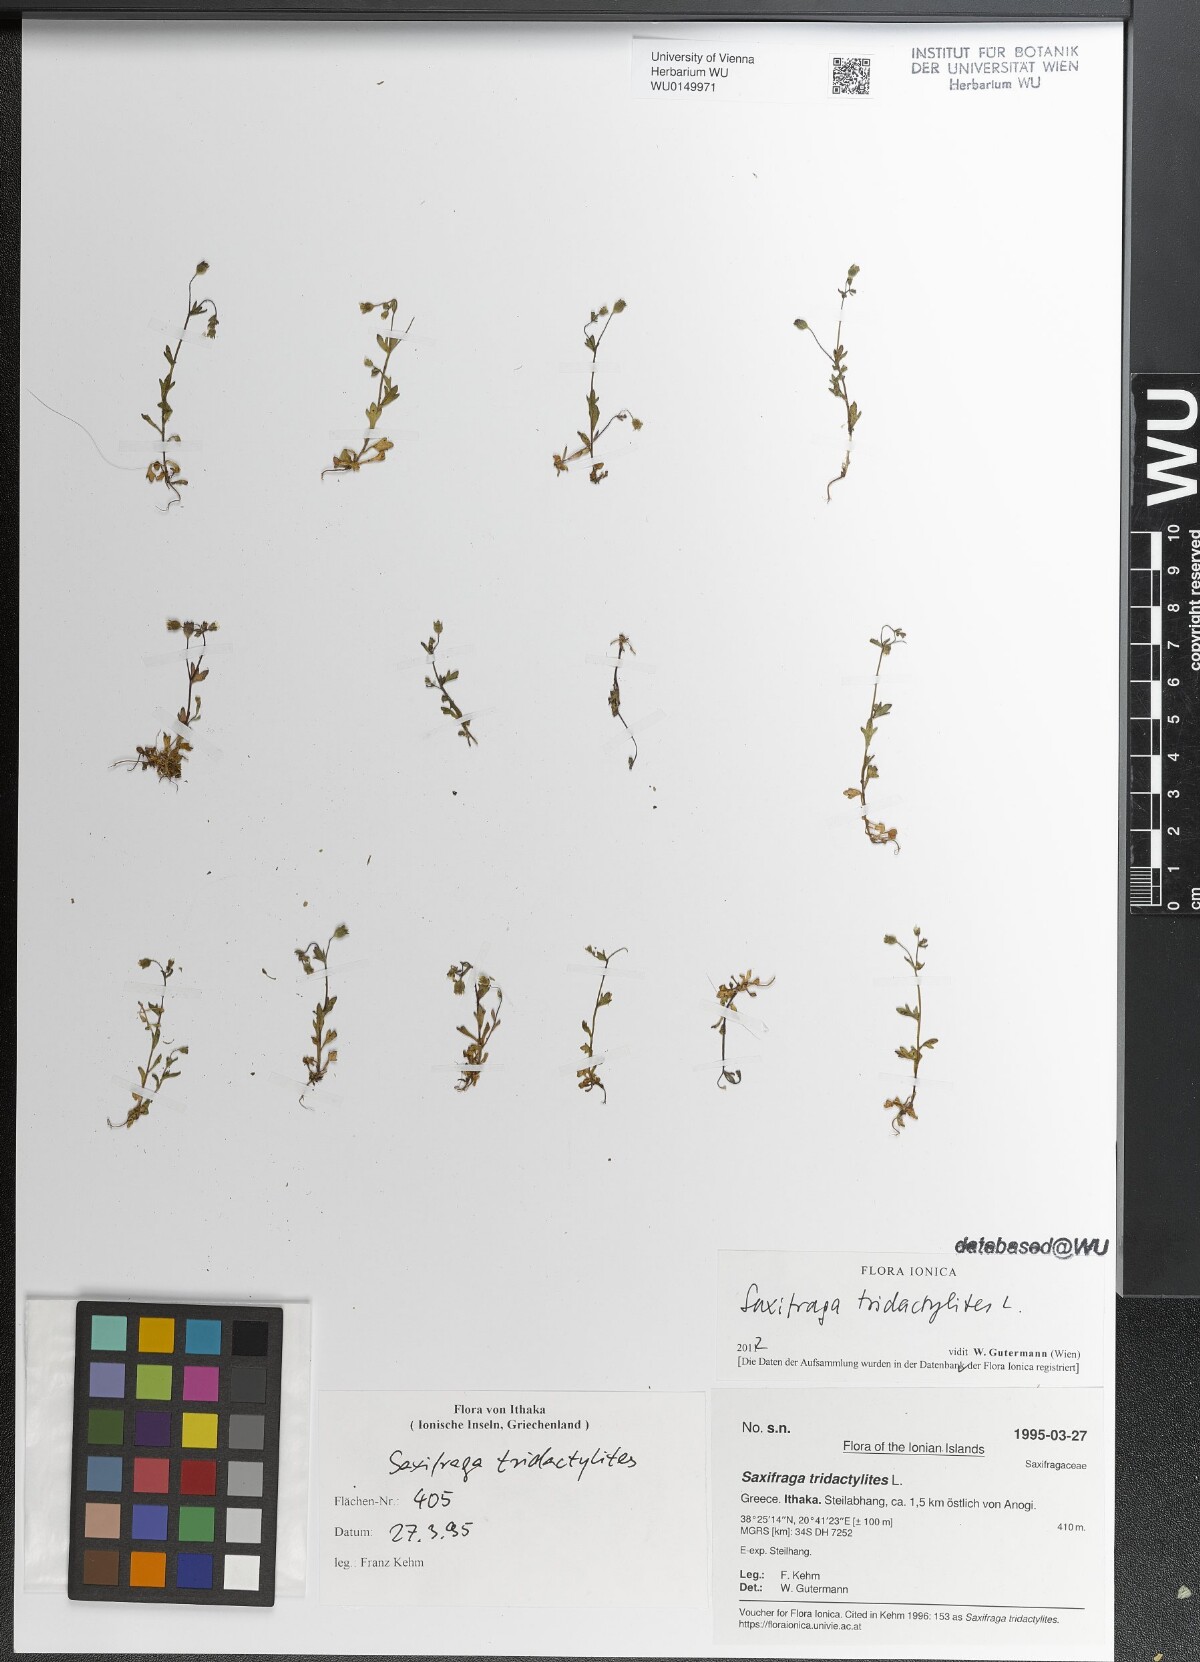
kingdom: Plantae
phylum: Tracheophyta
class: Magnoliopsida
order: Saxifragales
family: Saxifragaceae
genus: Saxifraga
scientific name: Saxifraga tridactylites
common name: Rue-leaved saxifrage
